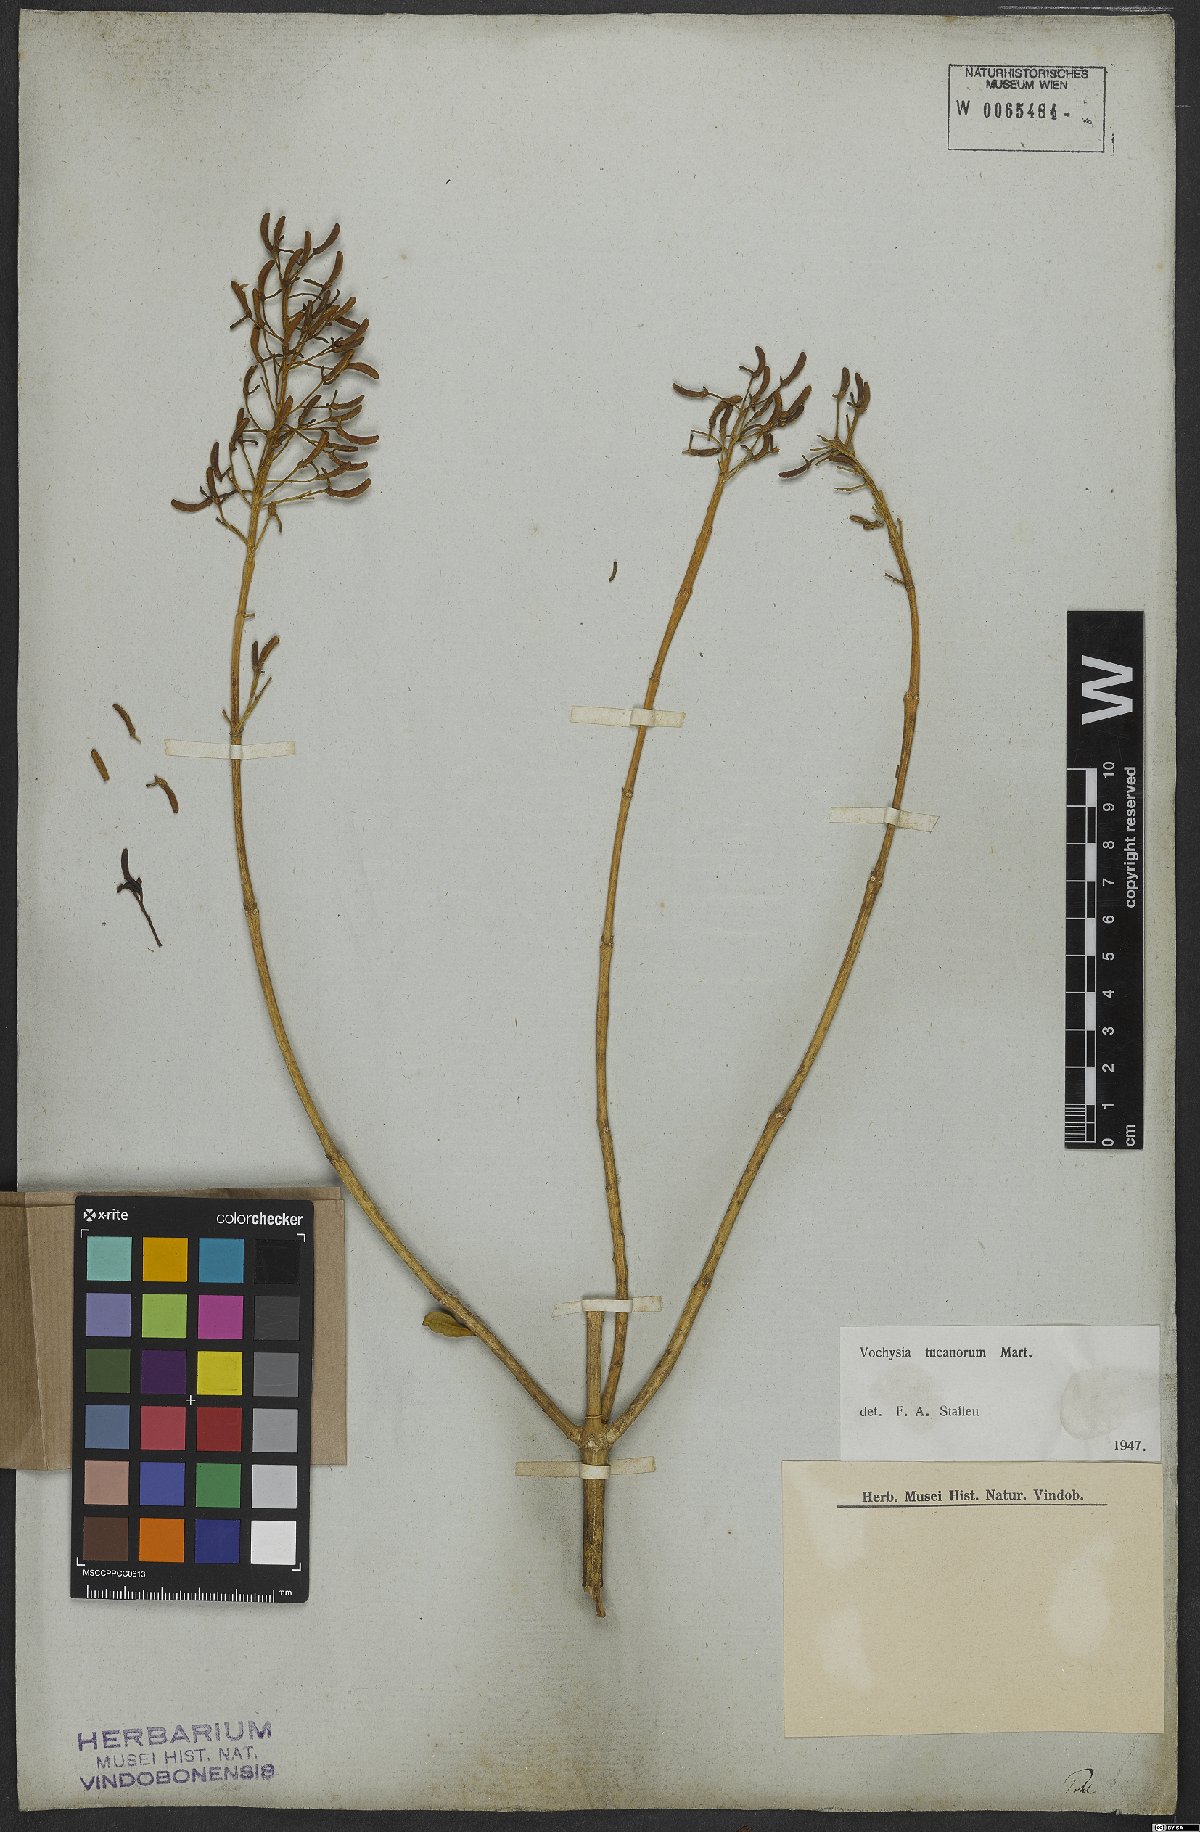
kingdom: Plantae
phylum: Tracheophyta
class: Magnoliopsida
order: Myrtales
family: Vochysiaceae
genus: Vochysia
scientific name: Vochysia tucanorum
